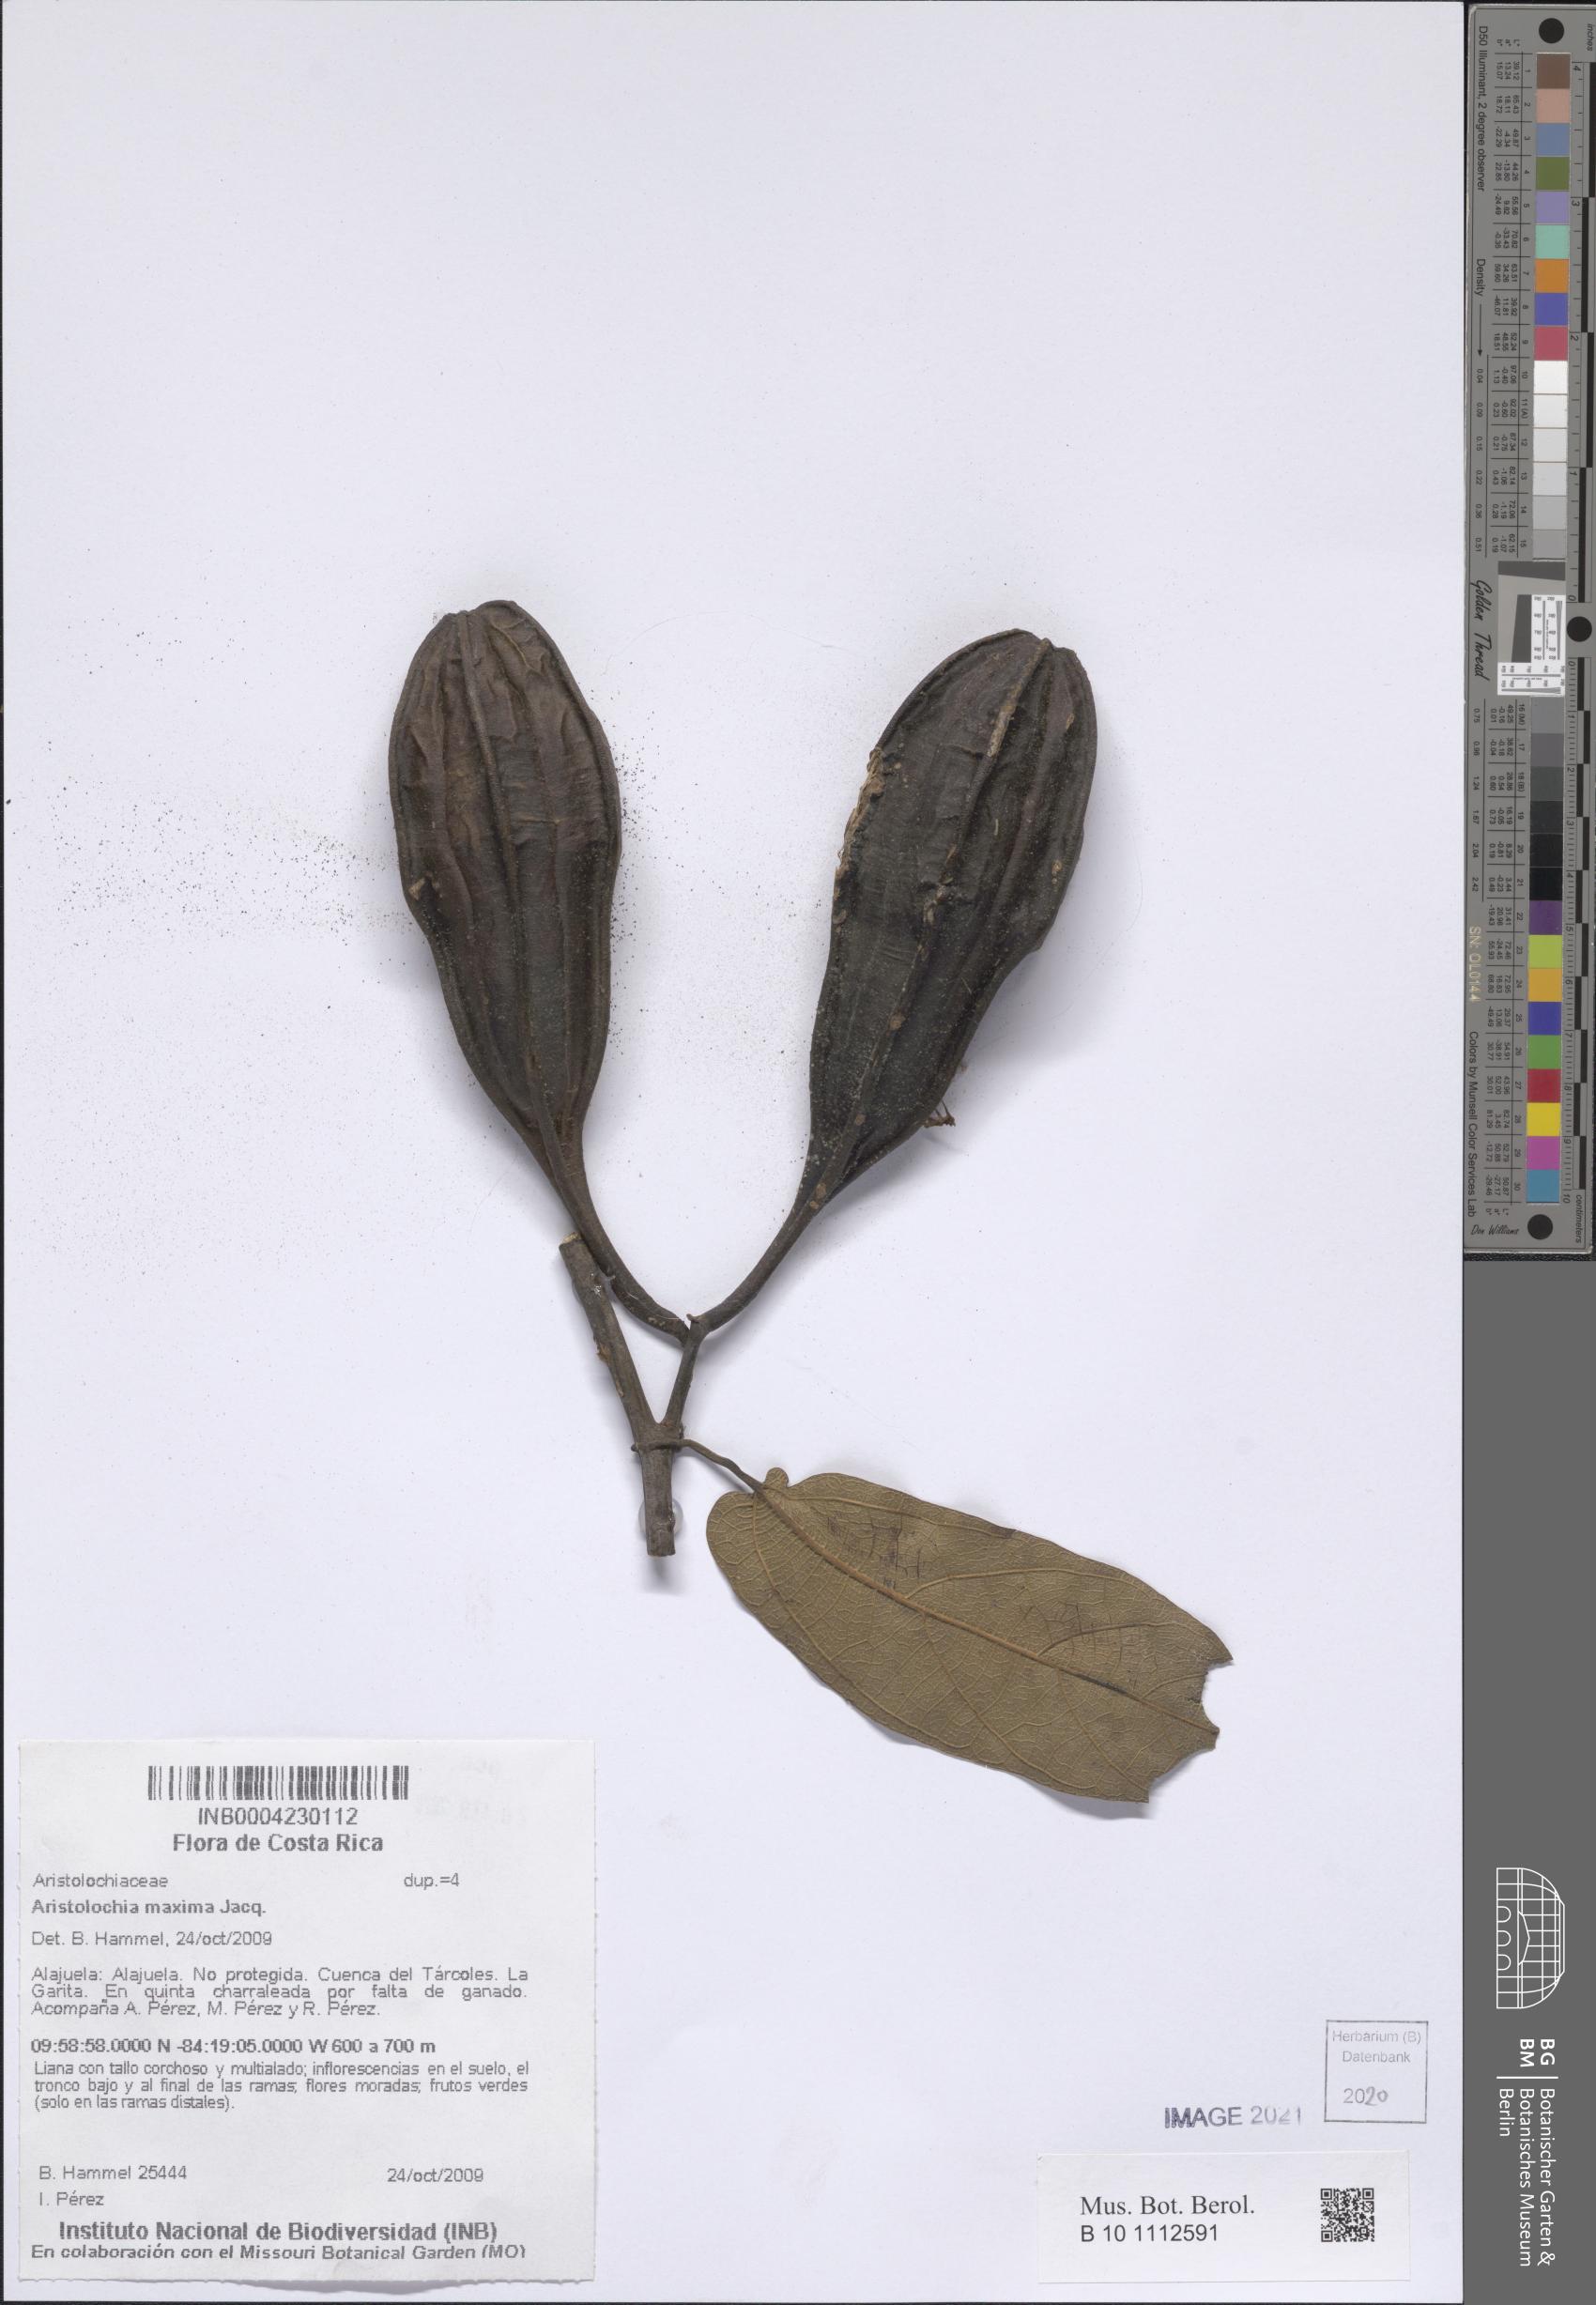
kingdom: Plantae
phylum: Tracheophyta
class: Magnoliopsida
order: Piperales
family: Aristolochiaceae
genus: Aristolochia
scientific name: Aristolochia maxima
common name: Florida dutchman's pipe
